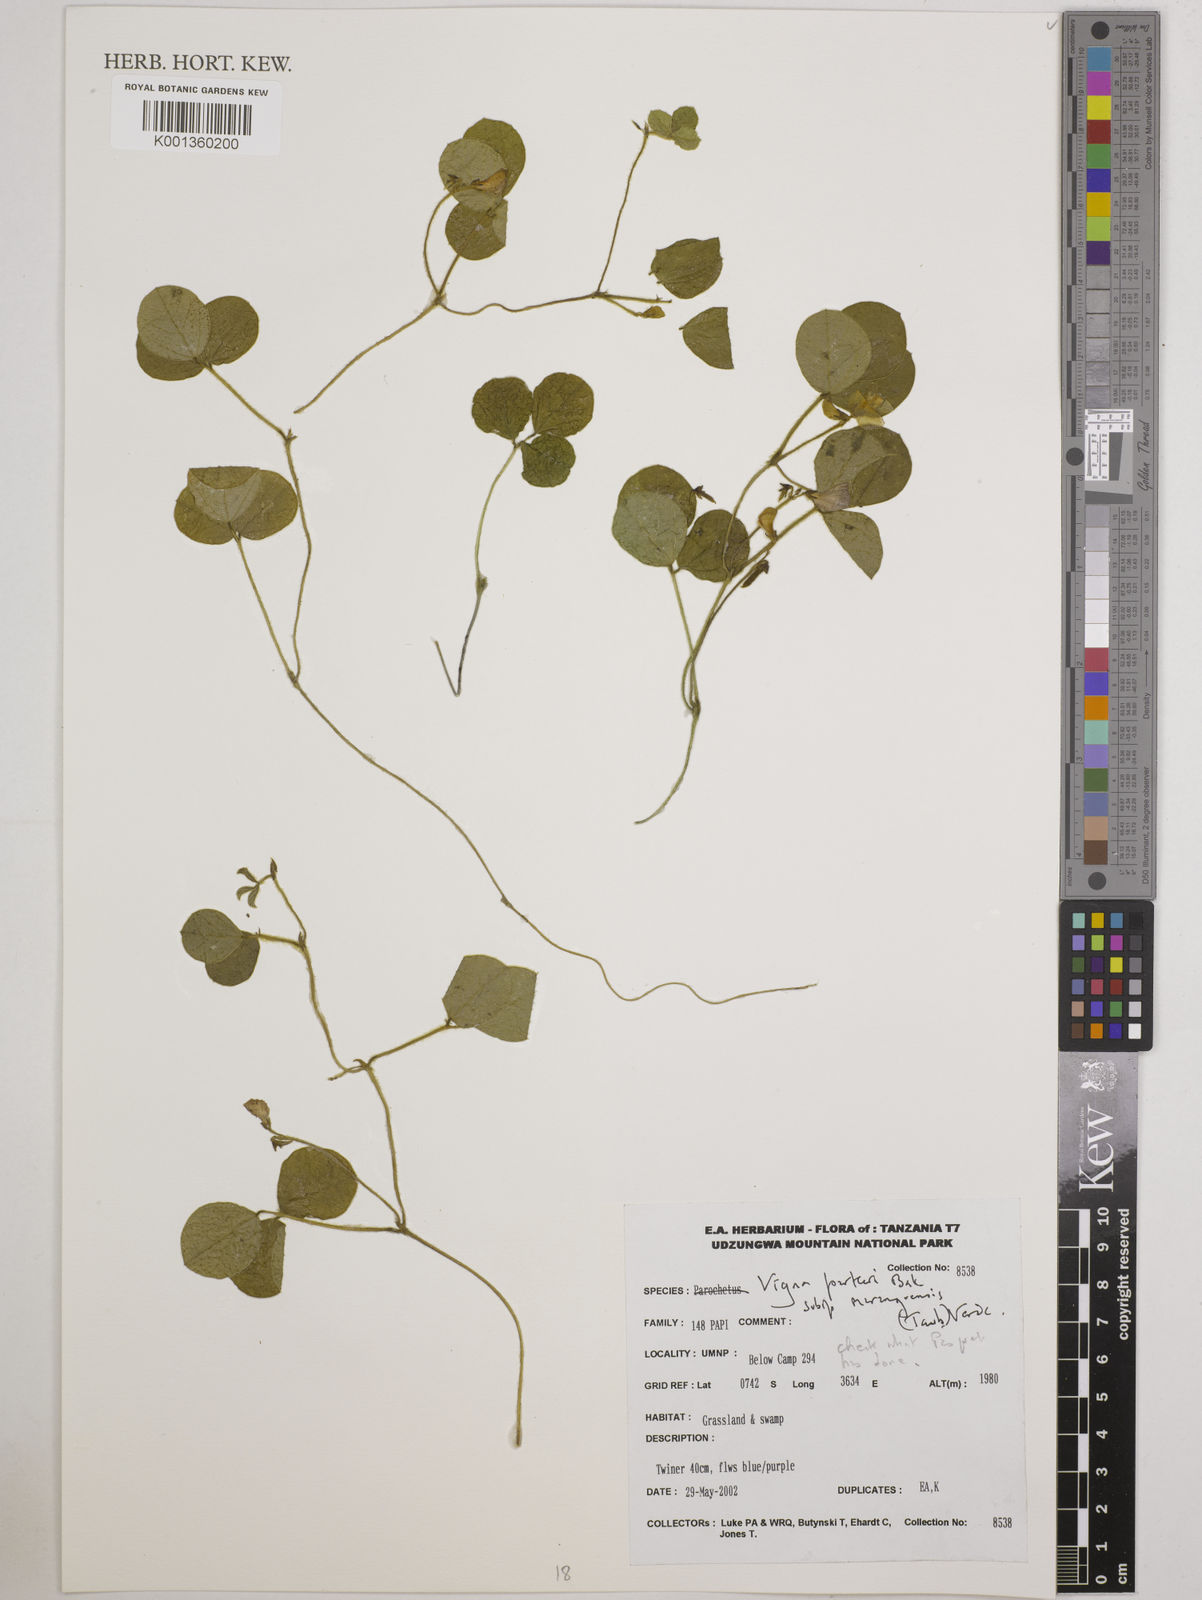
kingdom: Plantae
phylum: Tracheophyta
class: Magnoliopsida
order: Fabales
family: Fabaceae
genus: Vigna
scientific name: Vigna
